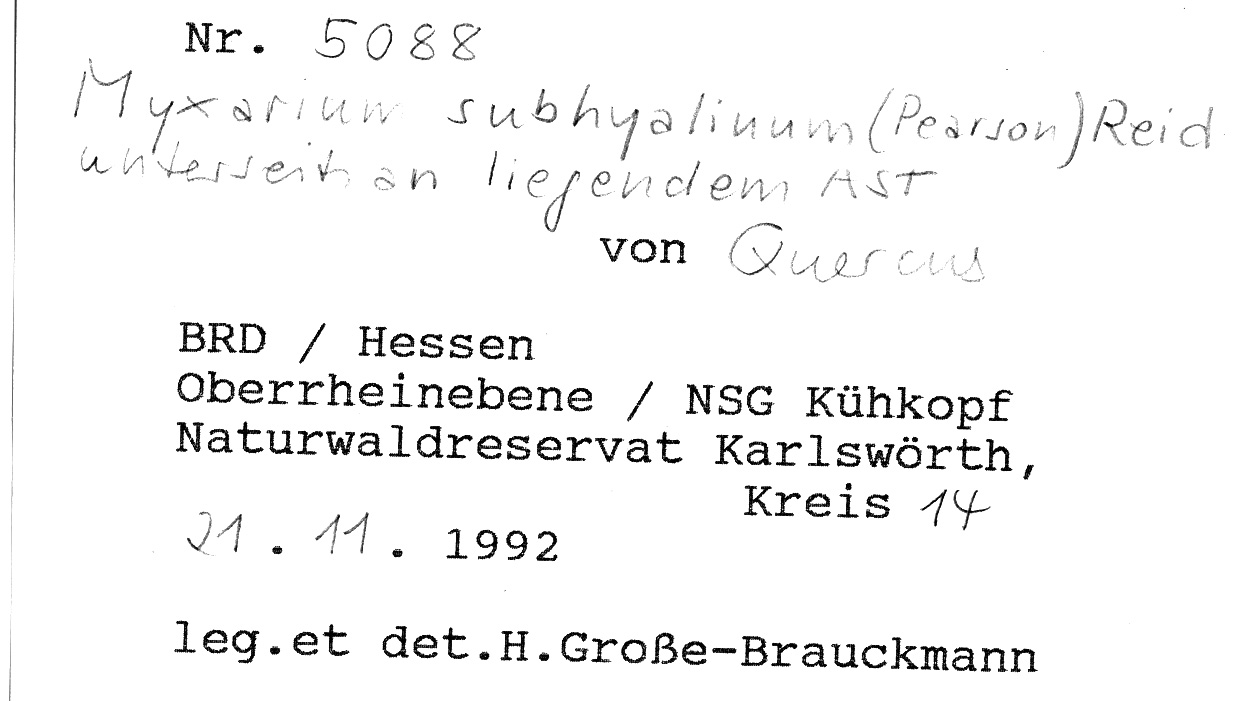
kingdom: Plantae
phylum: Tracheophyta
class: Magnoliopsida
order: Fagales
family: Fagaceae
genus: Quercus
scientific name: Quercus
